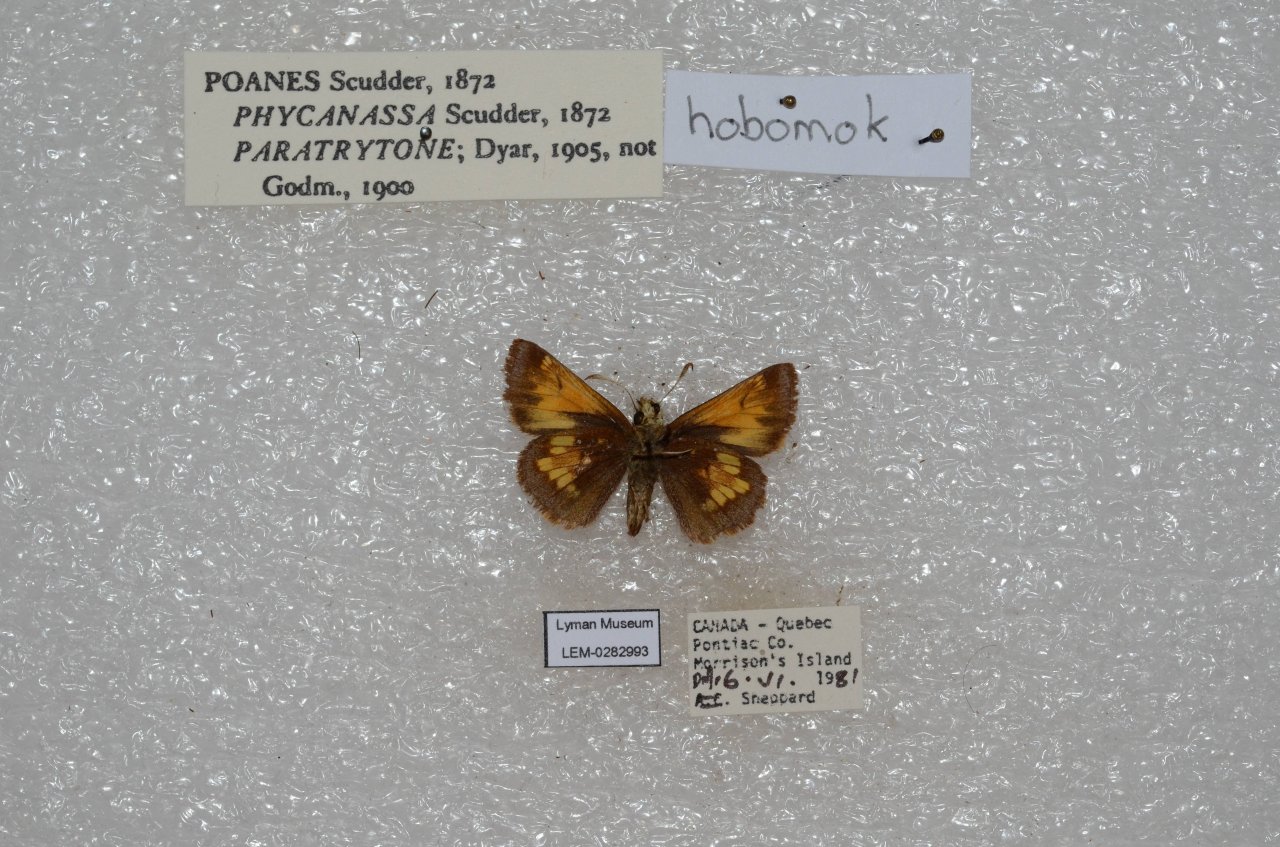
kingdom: Animalia
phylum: Arthropoda
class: Insecta
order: Lepidoptera
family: Hesperiidae
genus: Lon
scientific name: Lon hobomok
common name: Hobomok Skipper
